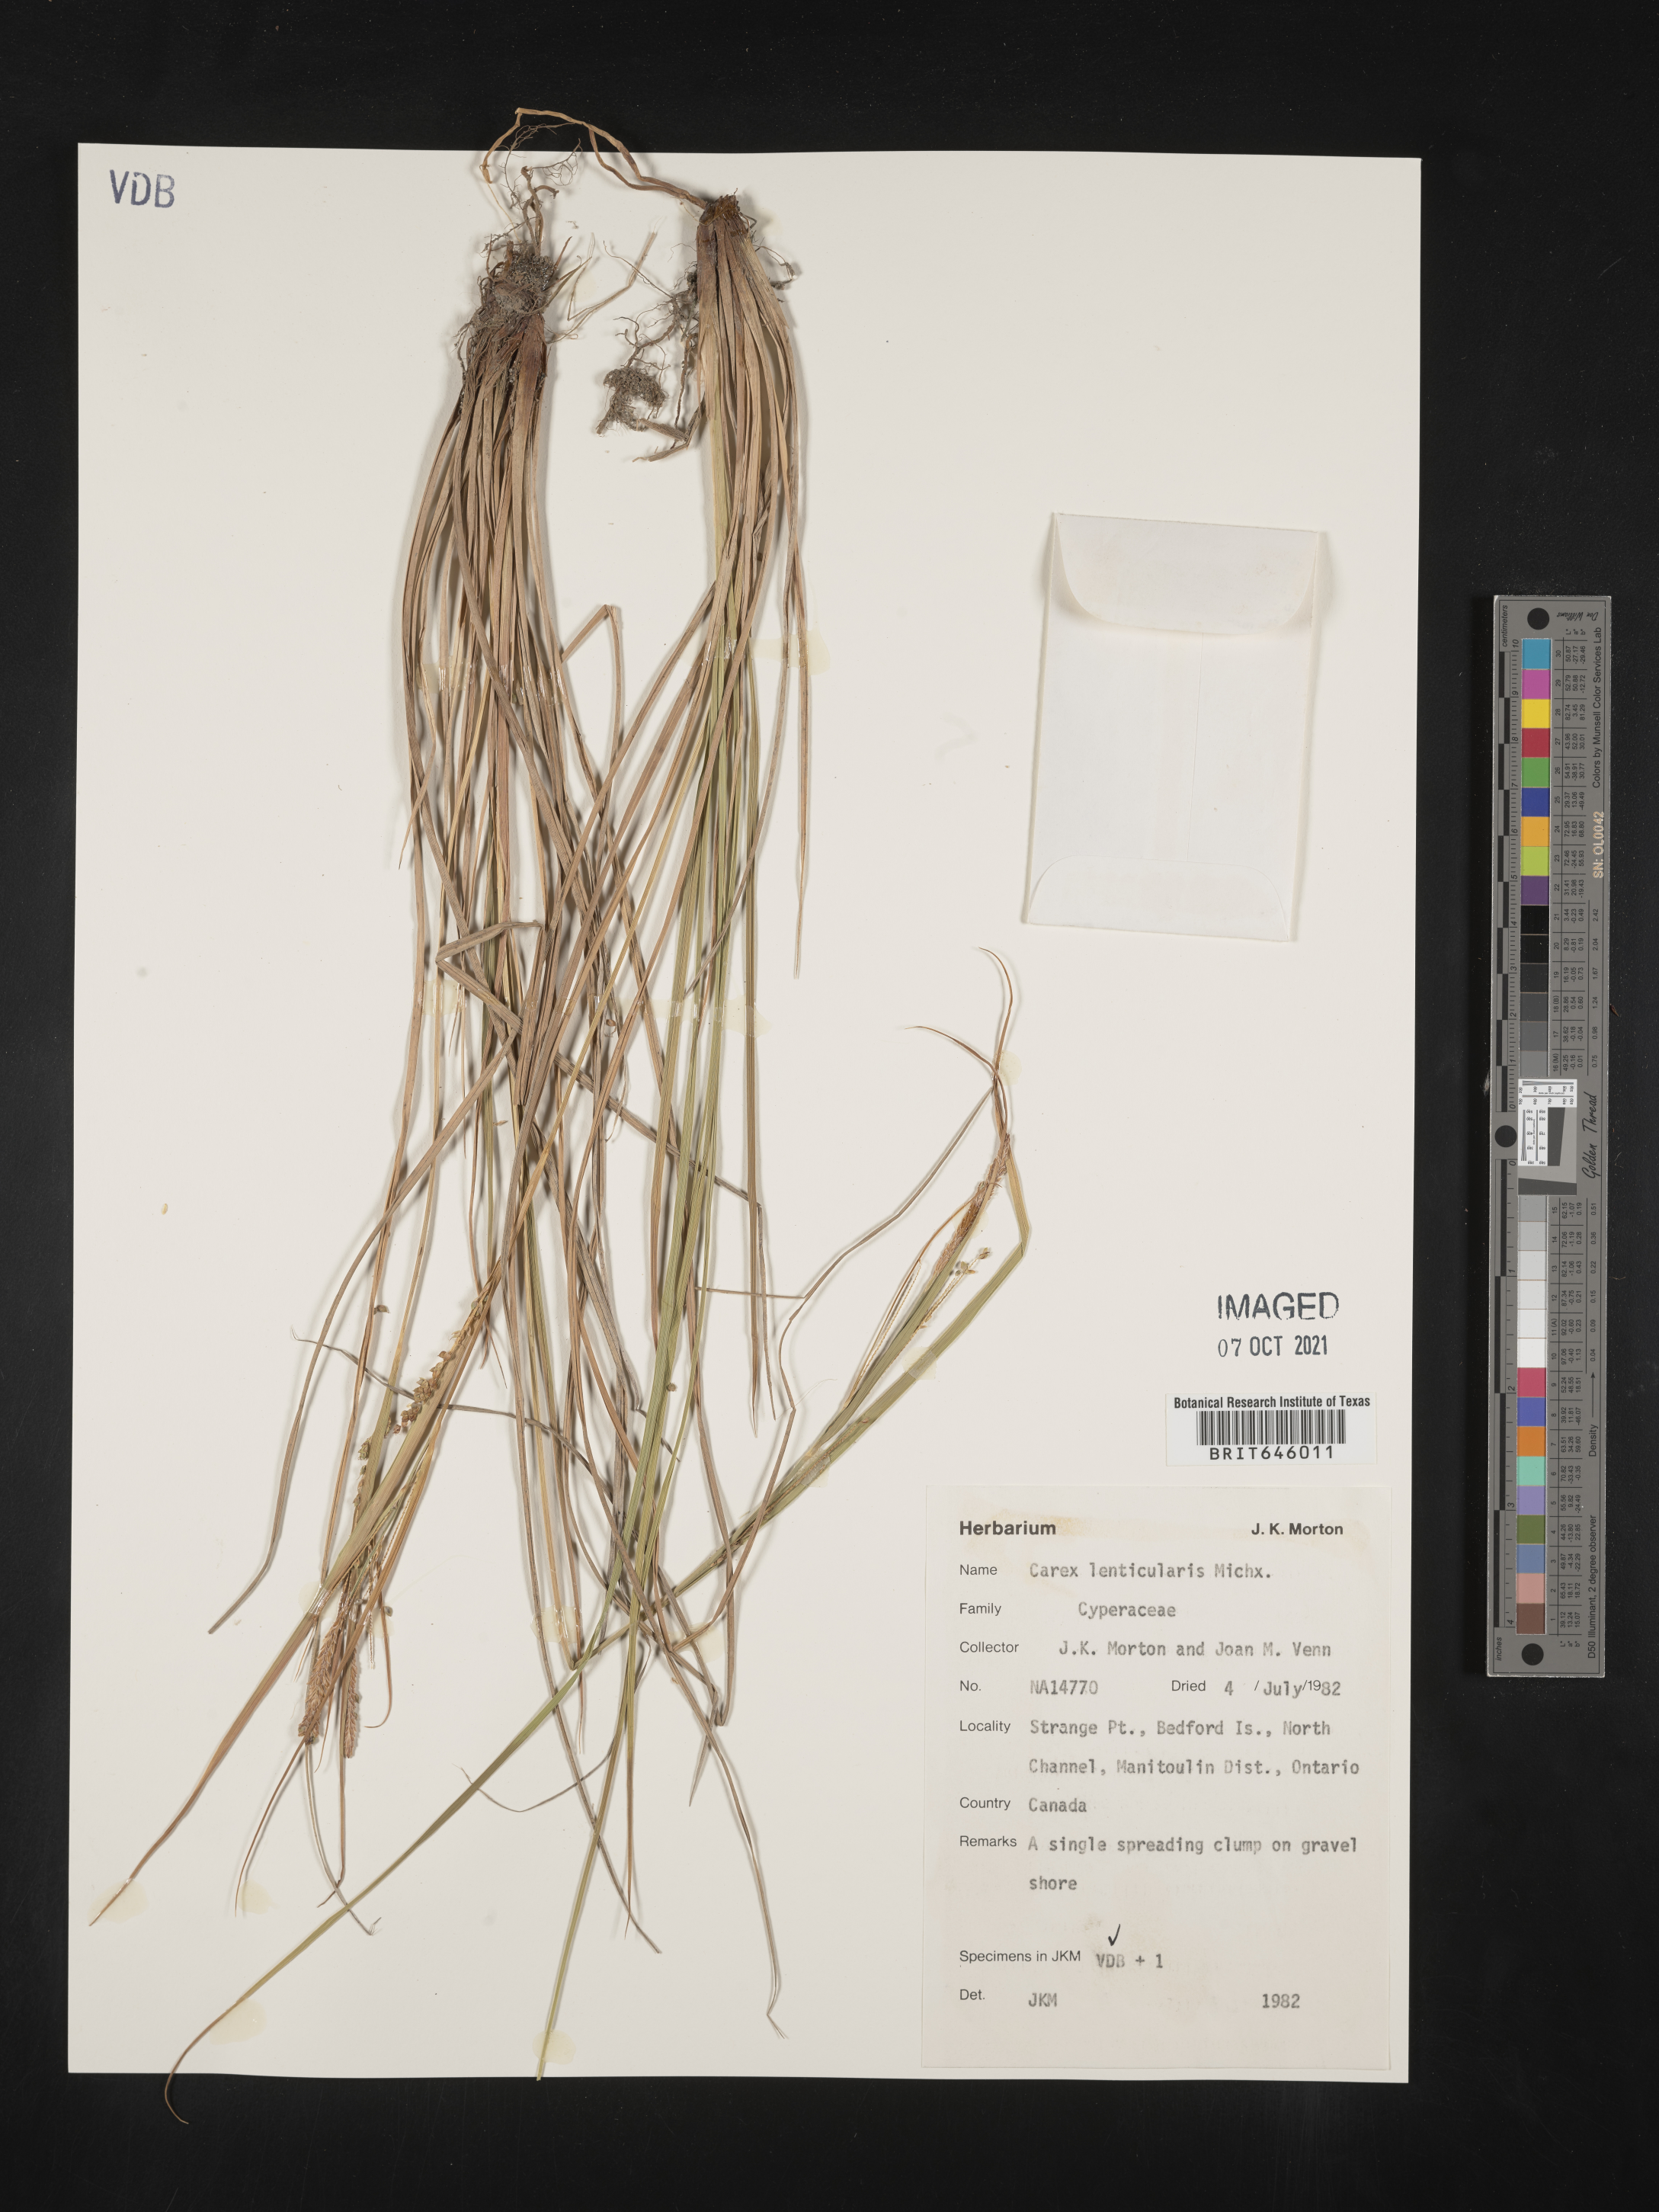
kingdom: Plantae
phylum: Tracheophyta
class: Liliopsida
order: Poales
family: Cyperaceae
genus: Carex
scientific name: Carex lenticularis
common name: Lakeshore sedge
